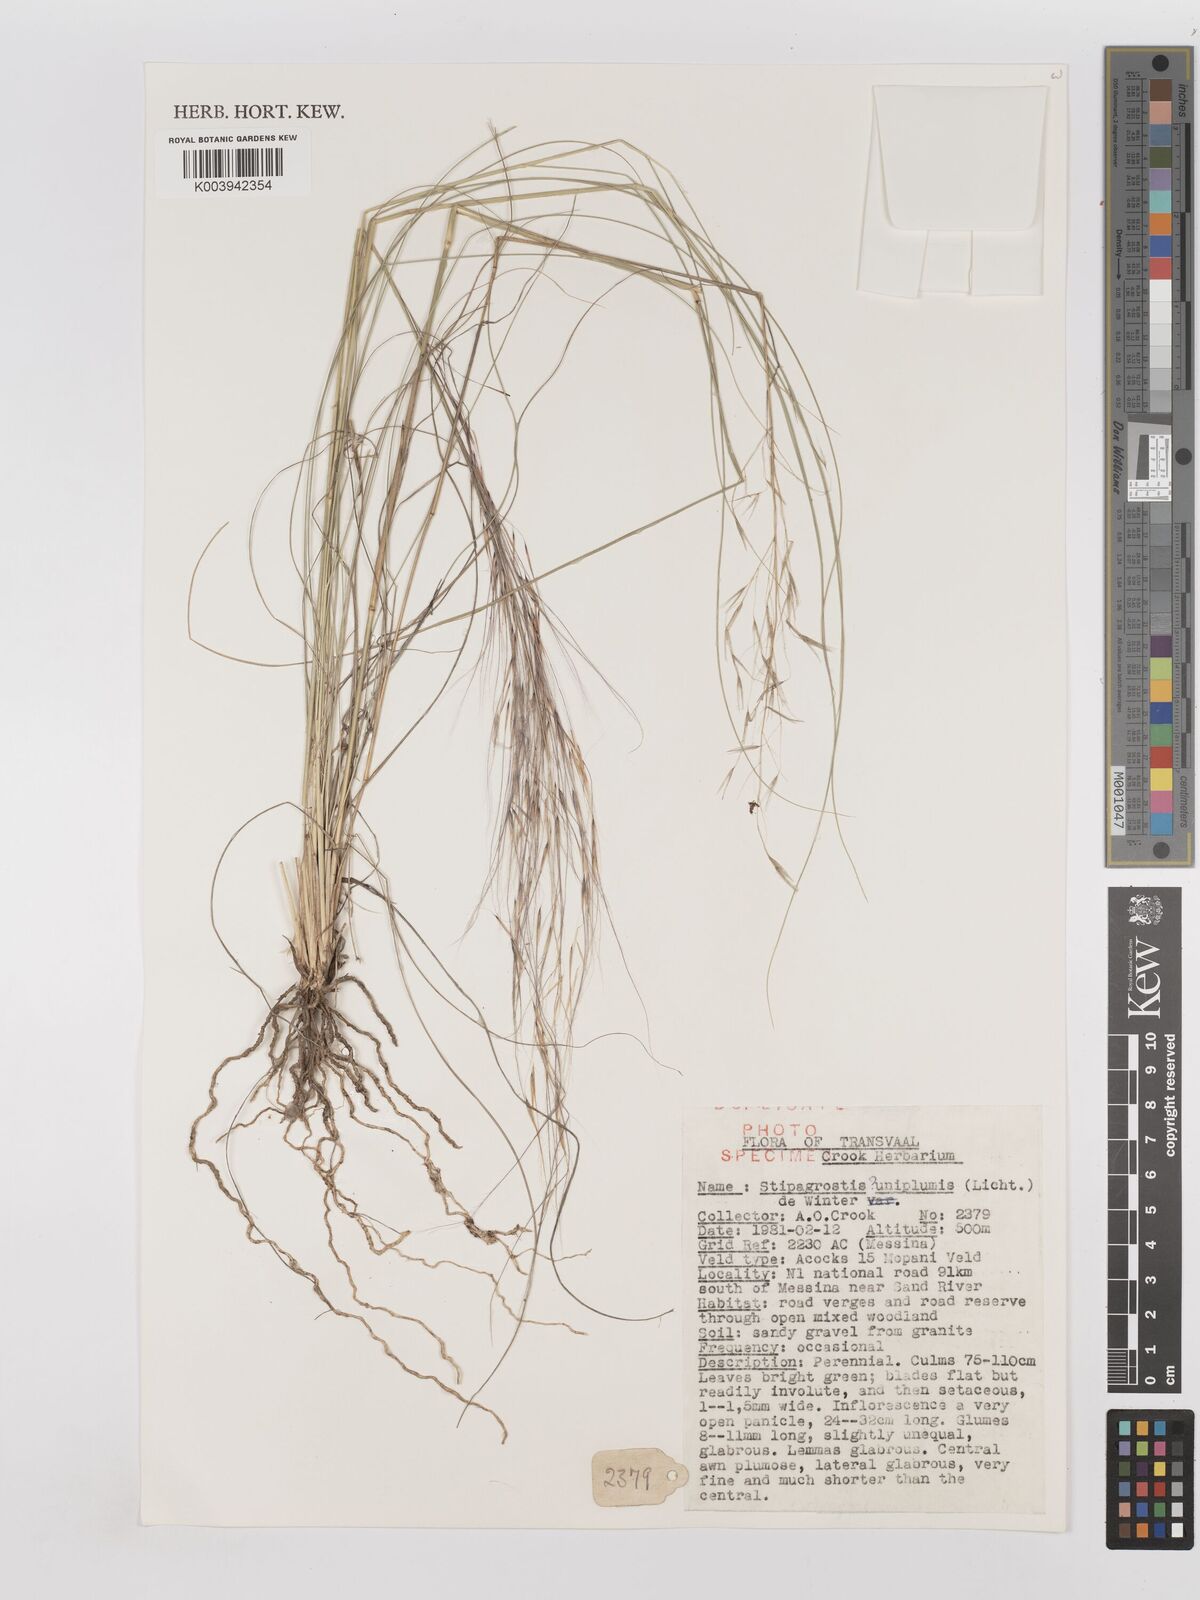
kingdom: Plantae
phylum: Tracheophyta
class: Liliopsida
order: Poales
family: Poaceae
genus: Stipagrostis
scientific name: Stipagrostis uniplumis
